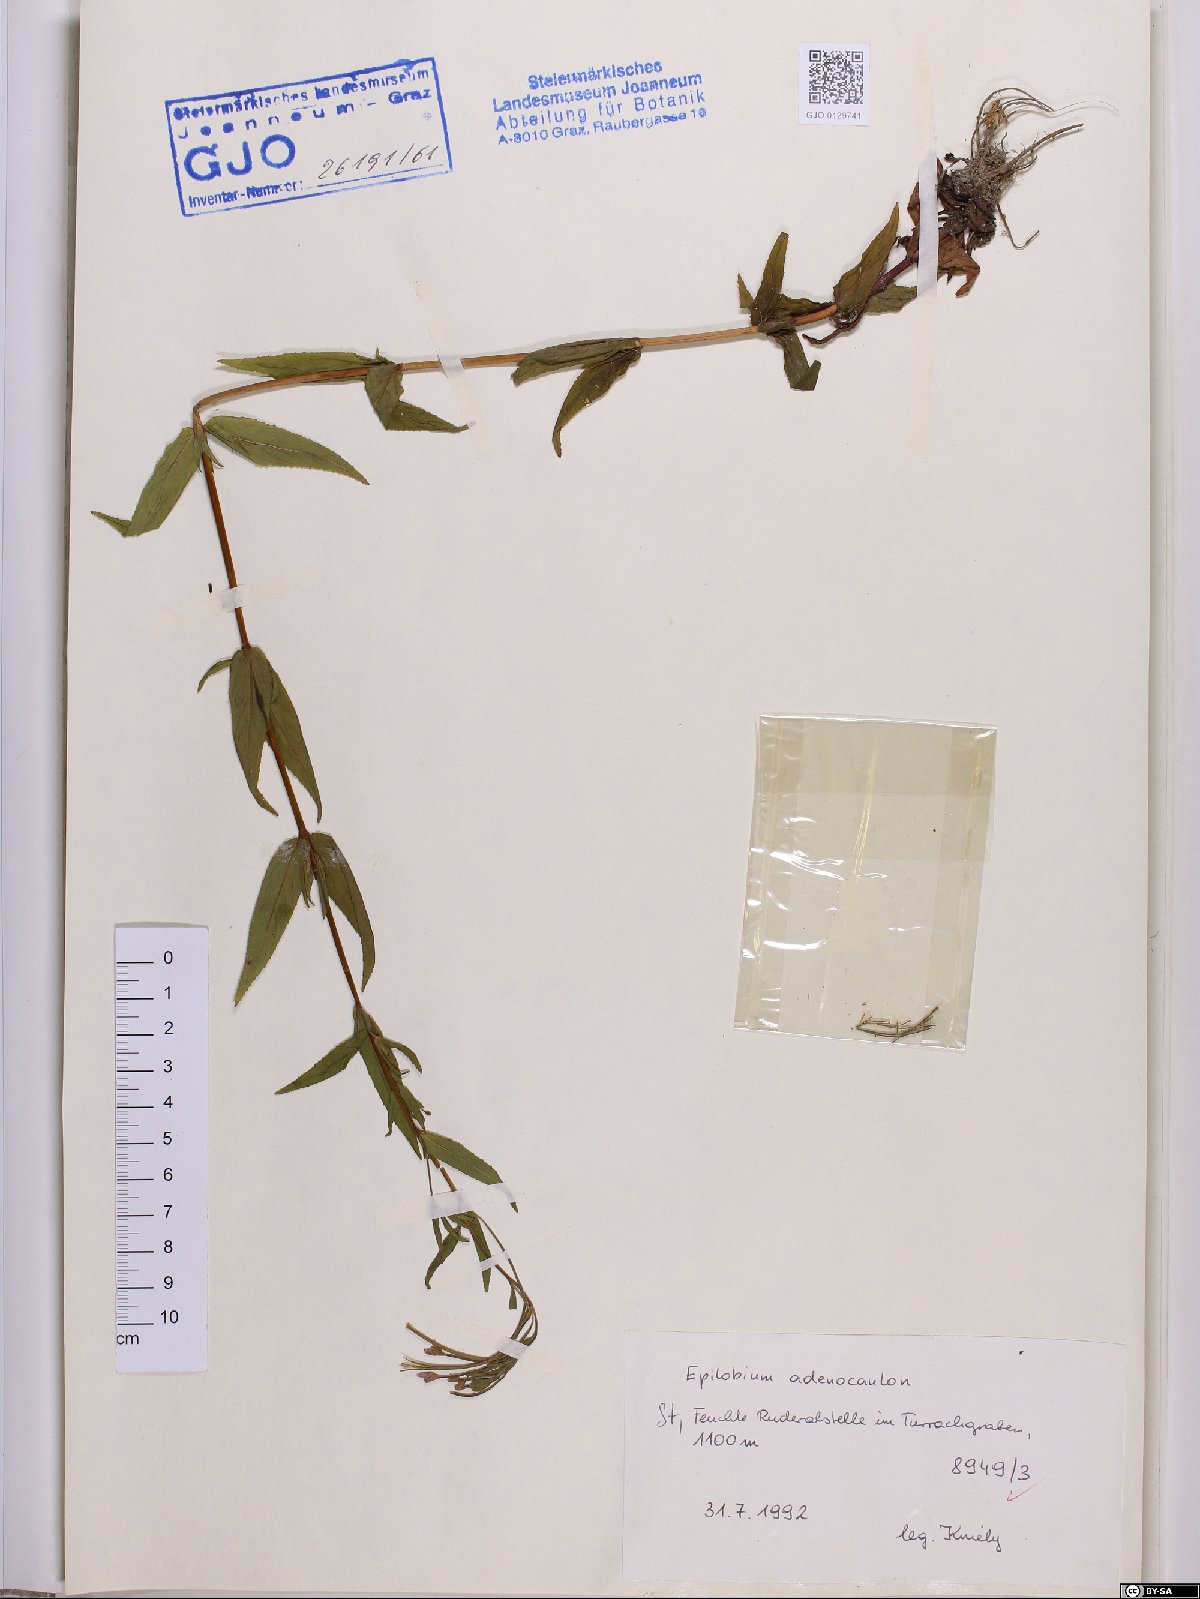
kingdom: Plantae
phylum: Tracheophyta
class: Magnoliopsida
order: Myrtales
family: Onagraceae
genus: Epilobium
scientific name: Epilobium ciliatum
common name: American willowherb
